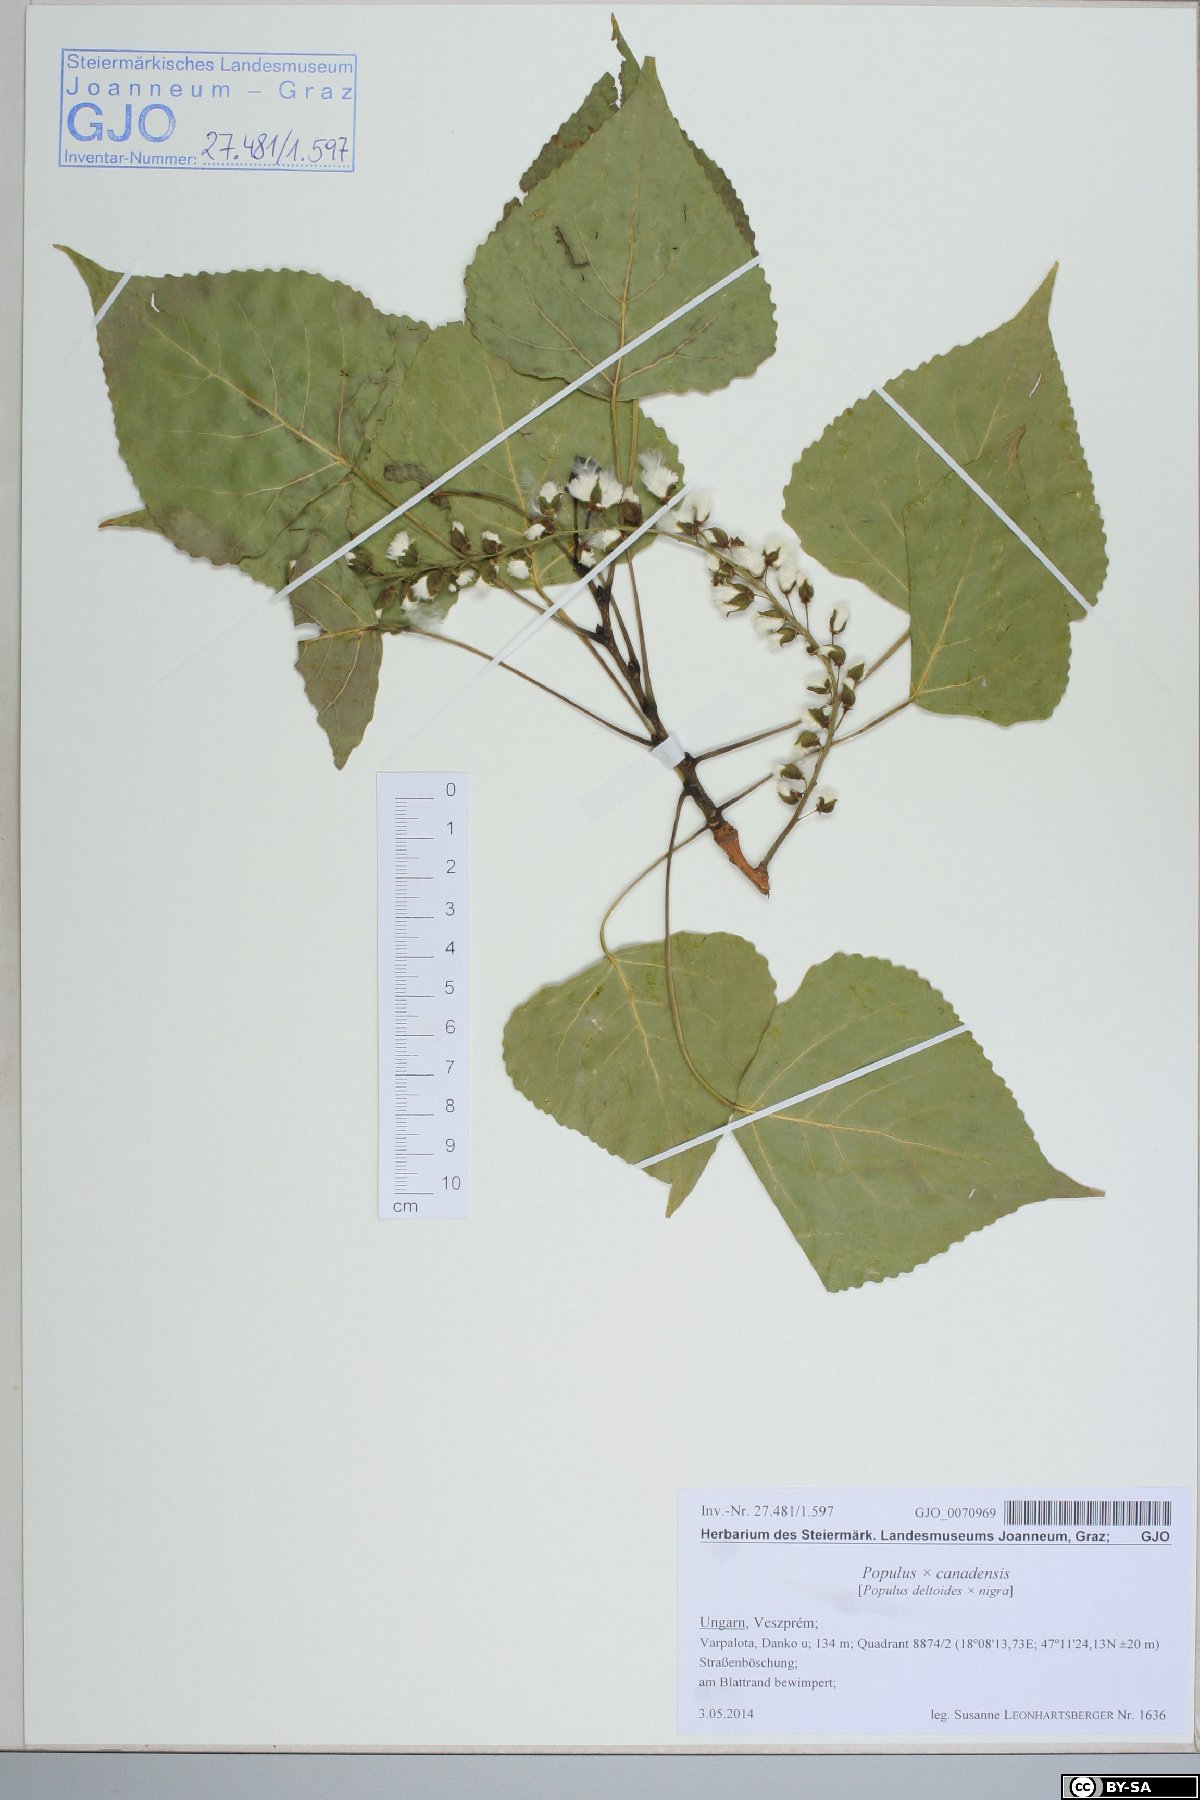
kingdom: Plantae
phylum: Tracheophyta
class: Magnoliopsida
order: Malpighiales
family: Salicaceae
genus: Populus
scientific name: Populus canadensis
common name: Carolina poplar
